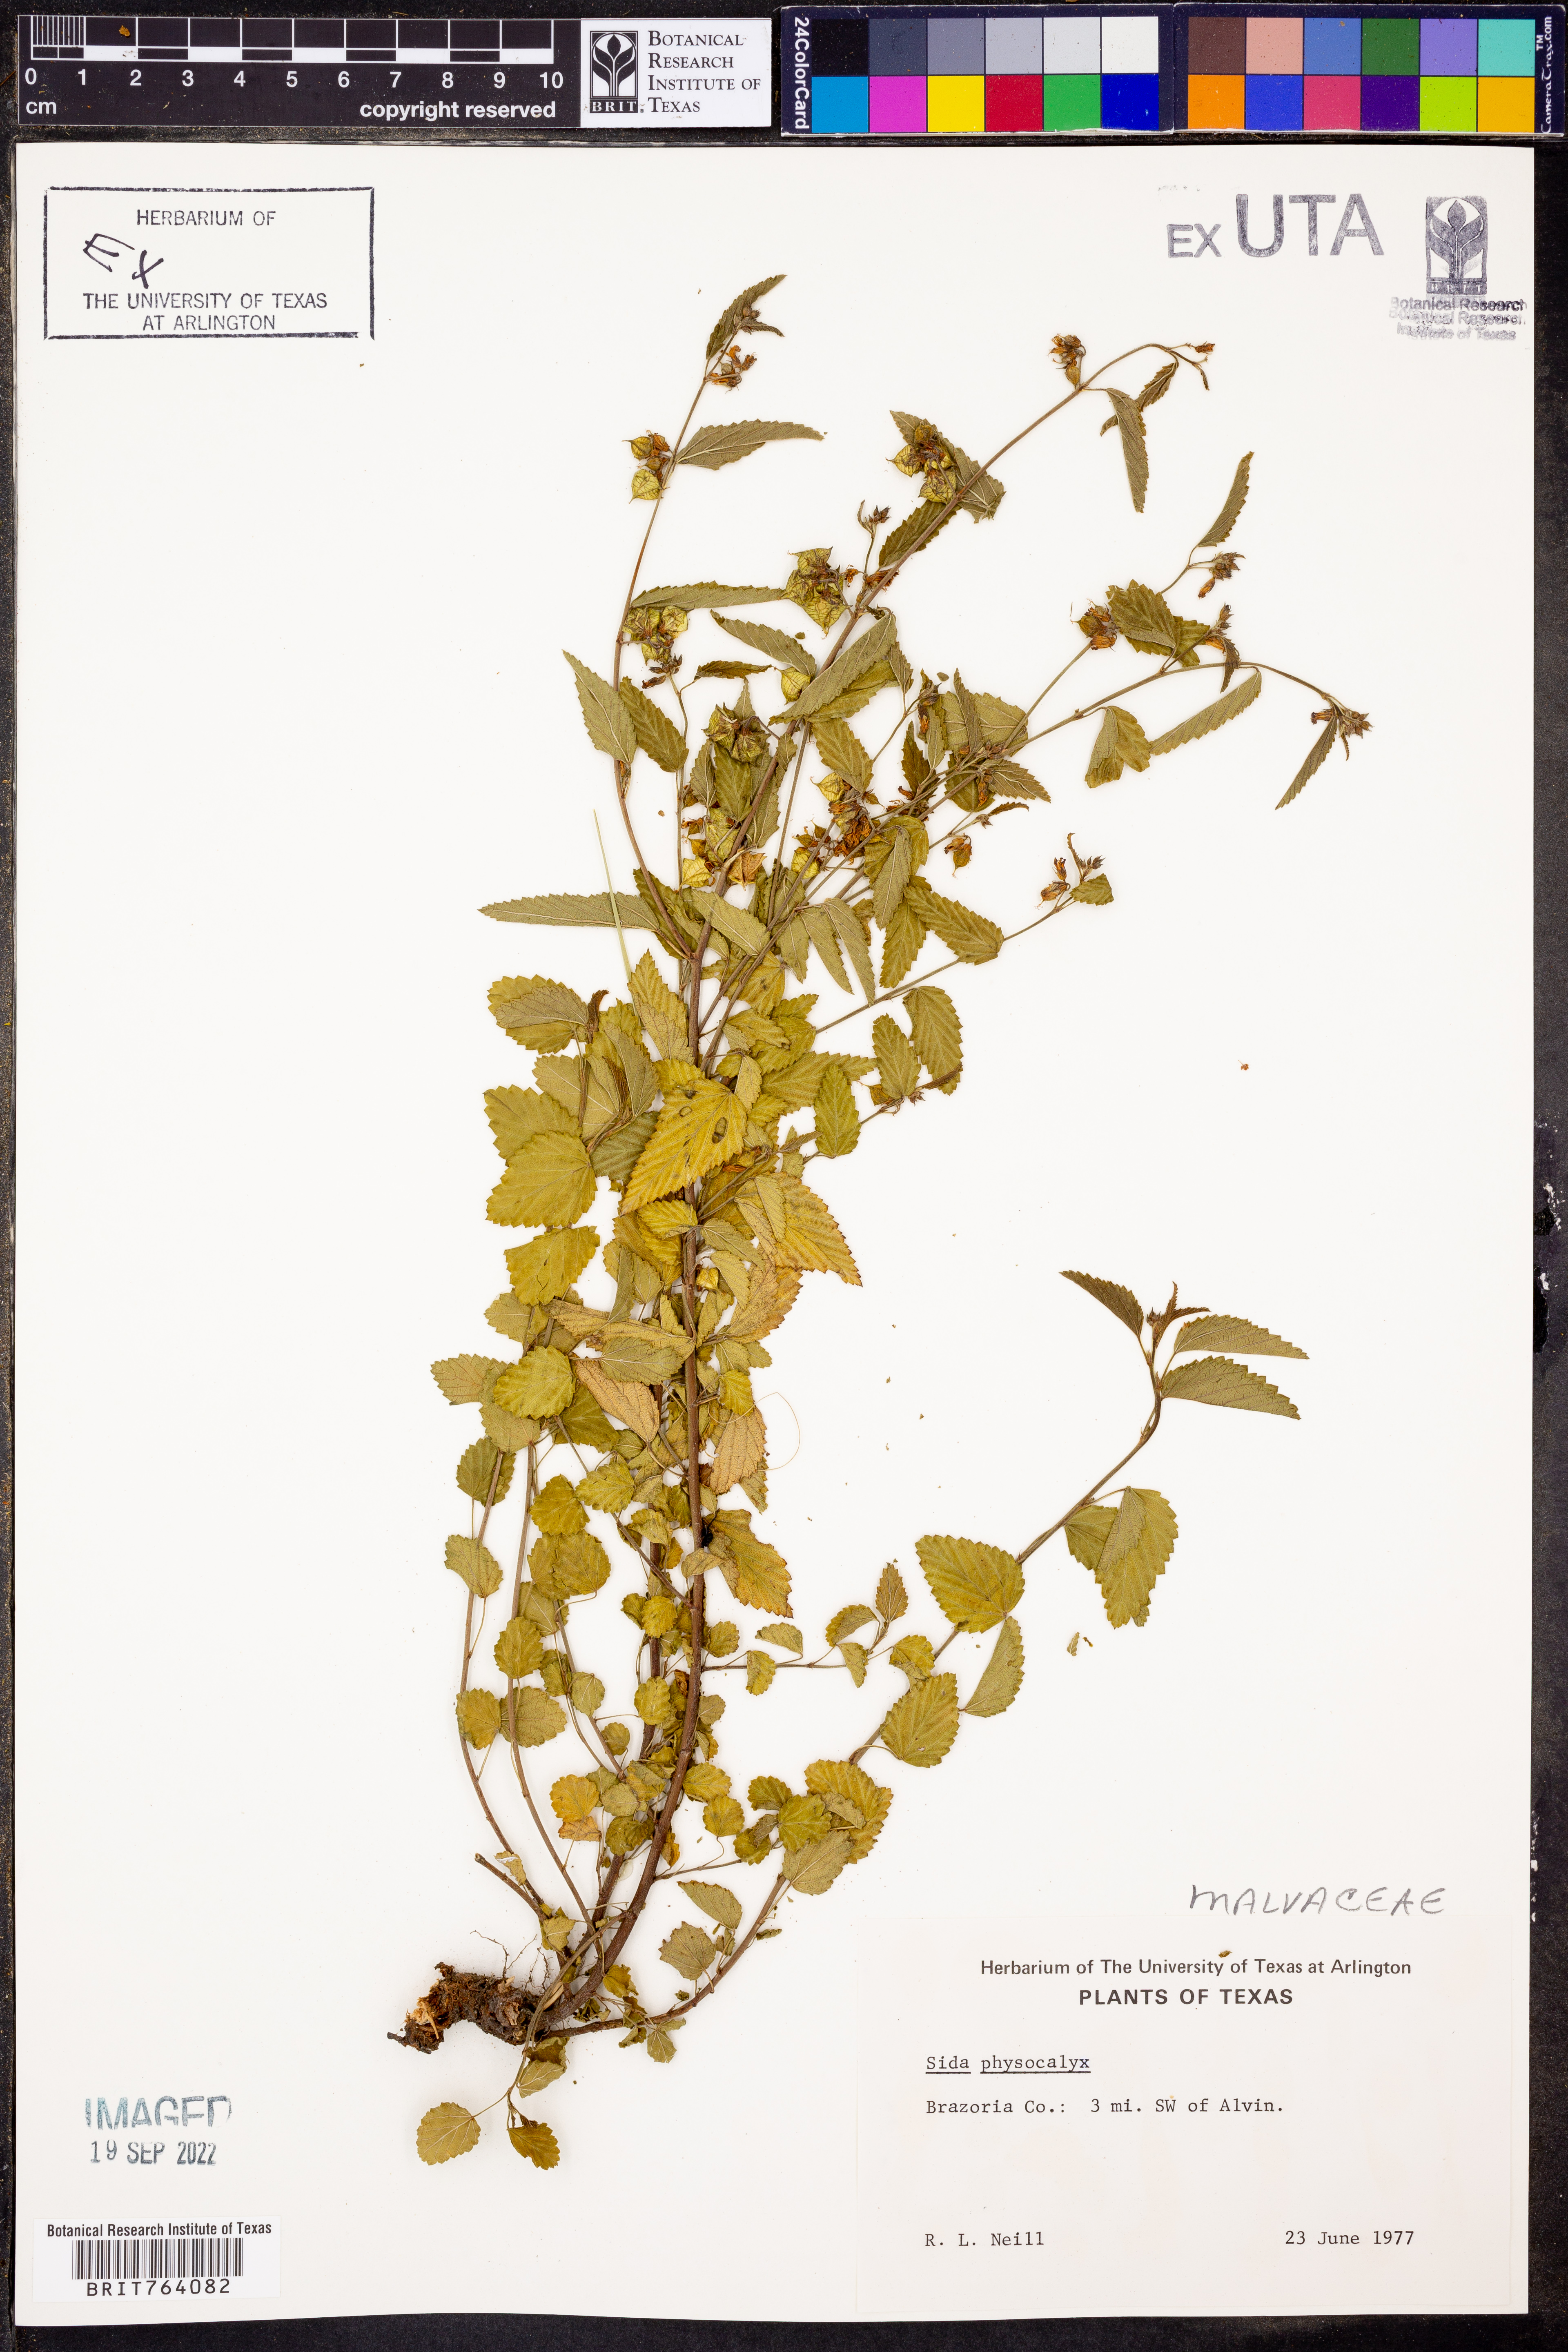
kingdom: Plantae
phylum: Tracheophyta
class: Magnoliopsida
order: Malvales
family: Malvaceae
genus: Rhynchosida
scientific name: Rhynchosida physocalyx
